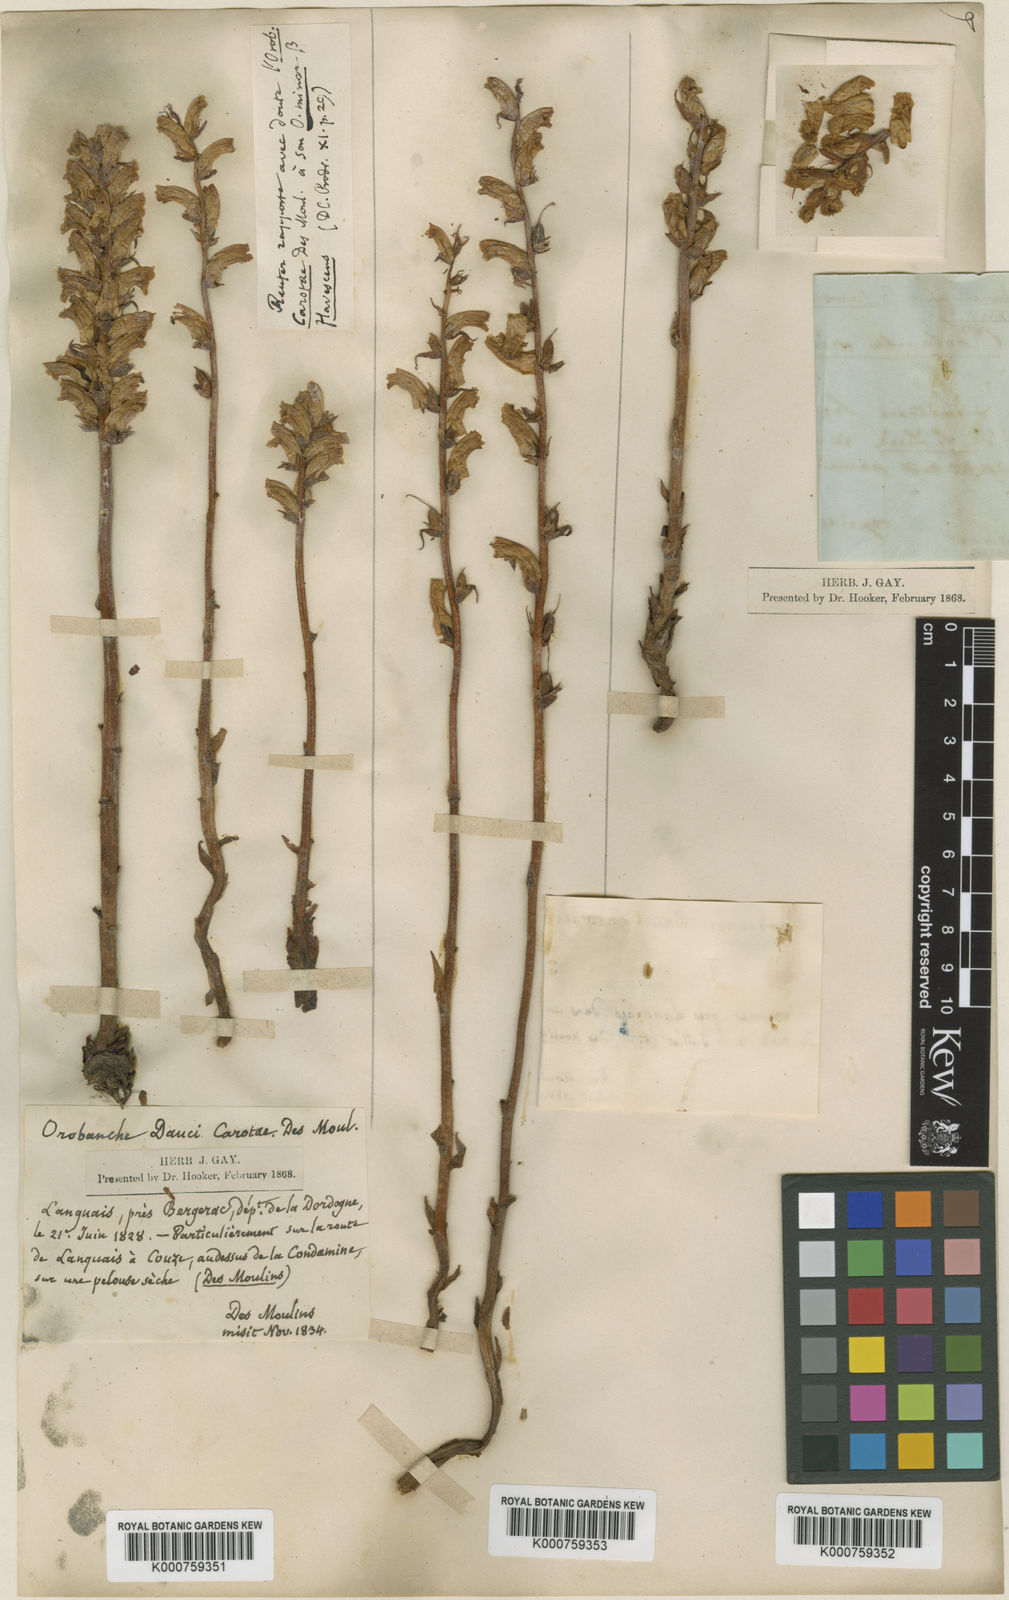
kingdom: Plantae
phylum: Tracheophyta
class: Magnoliopsida
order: Lamiales
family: Orobanchaceae
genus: Orobanche
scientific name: Orobanche picridis
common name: Oxtongue broomrape
